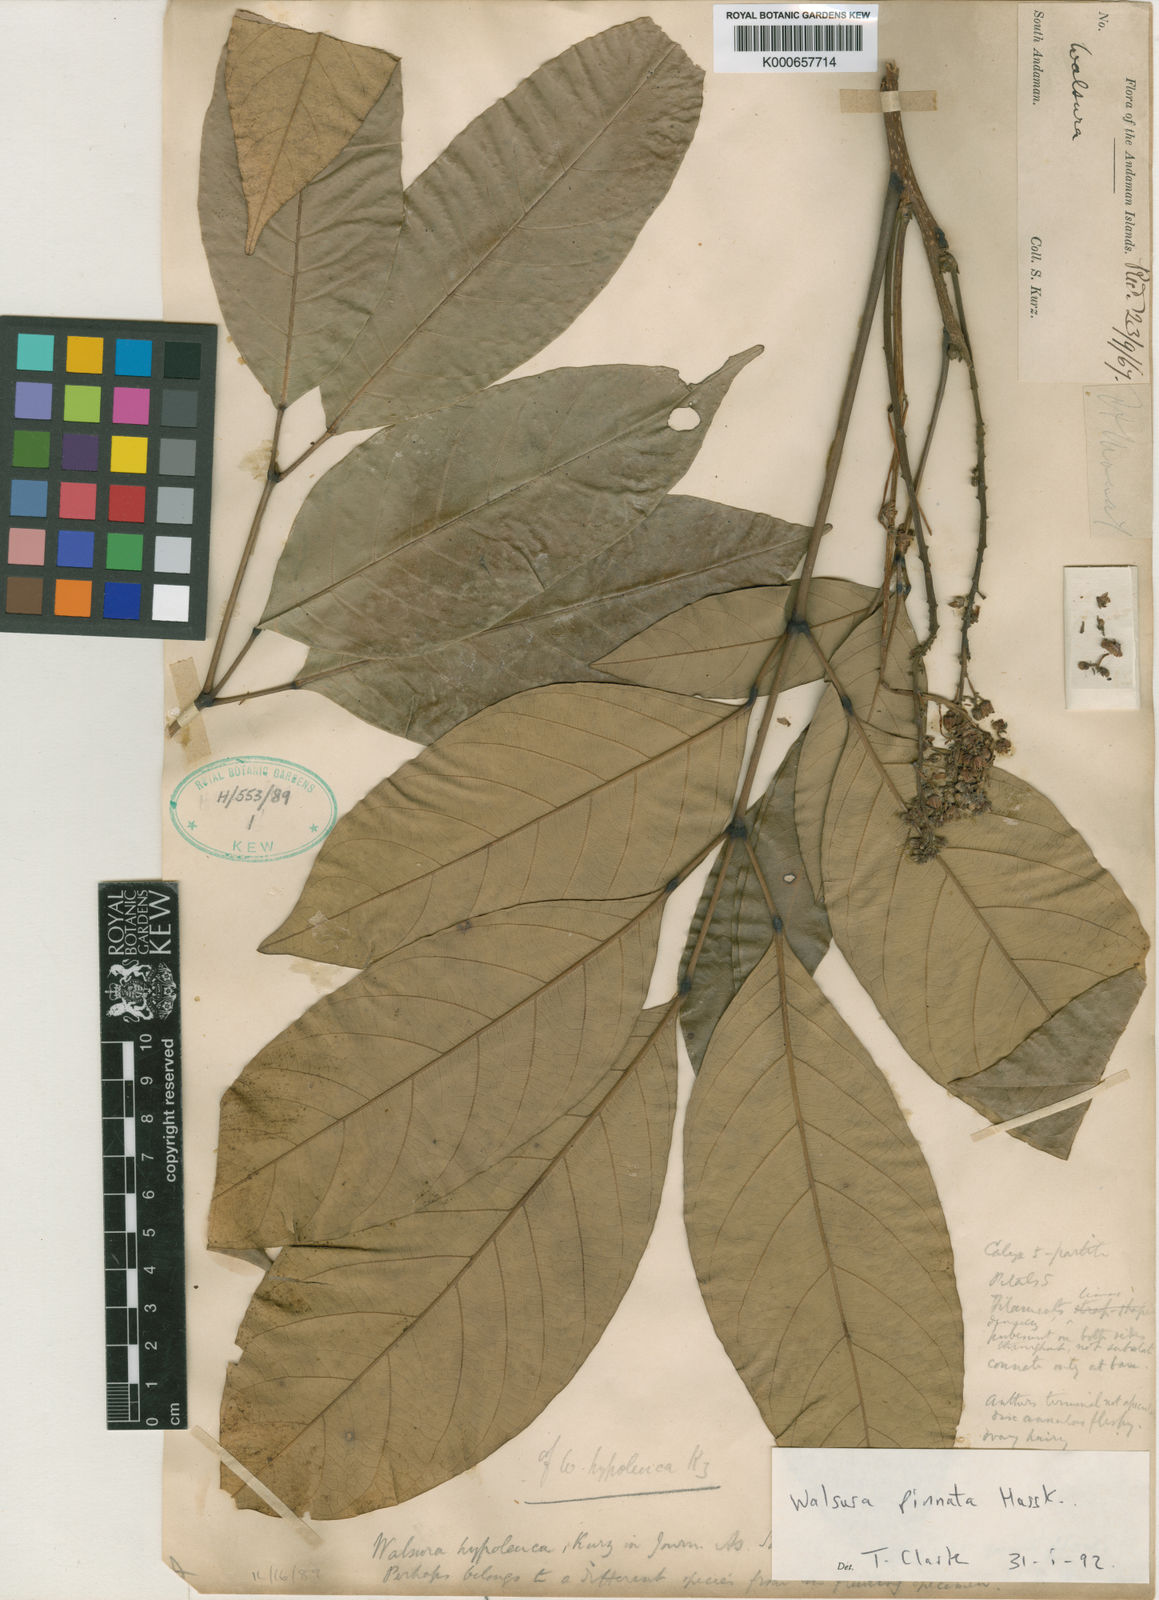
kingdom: Plantae
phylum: Tracheophyta
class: Magnoliopsida
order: Sapindales
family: Meliaceae
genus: Walsura
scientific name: Walsura pinnata
